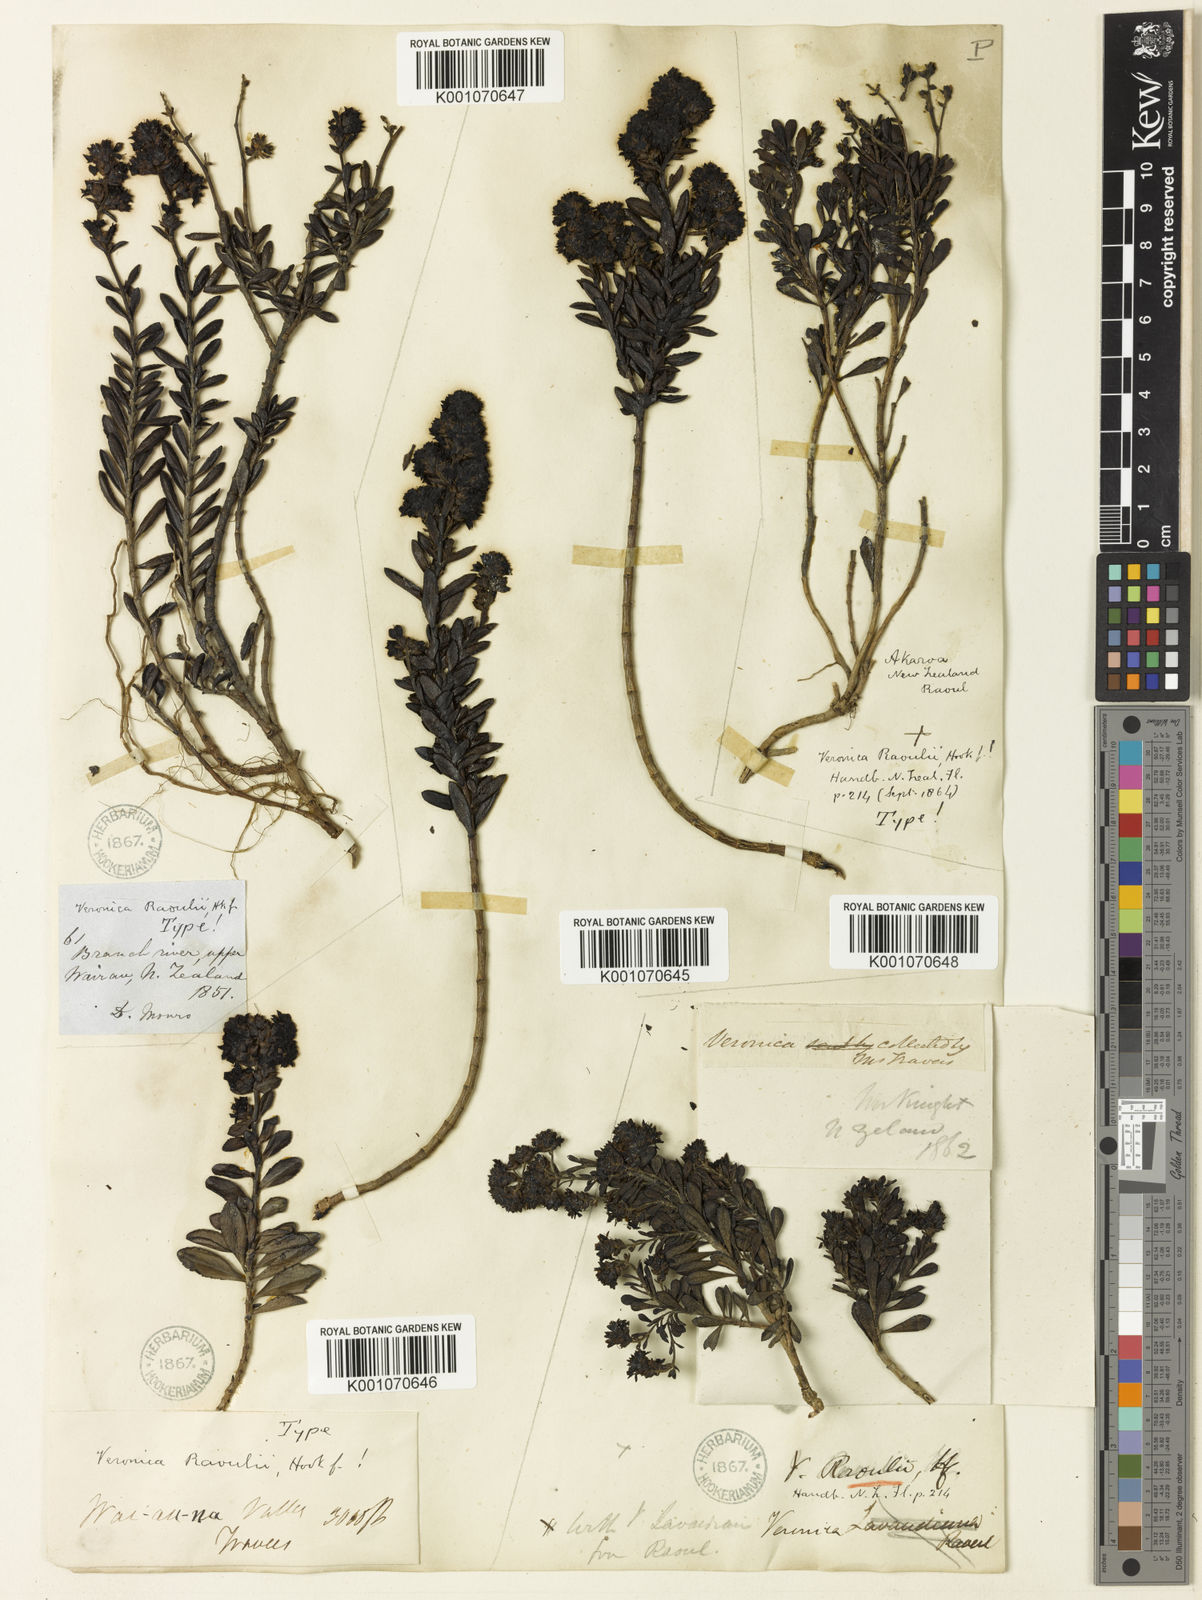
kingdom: Plantae
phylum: Tracheophyta
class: Magnoliopsida
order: Lamiales
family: Plantaginaceae
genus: Veronica
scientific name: Veronica raoulii
